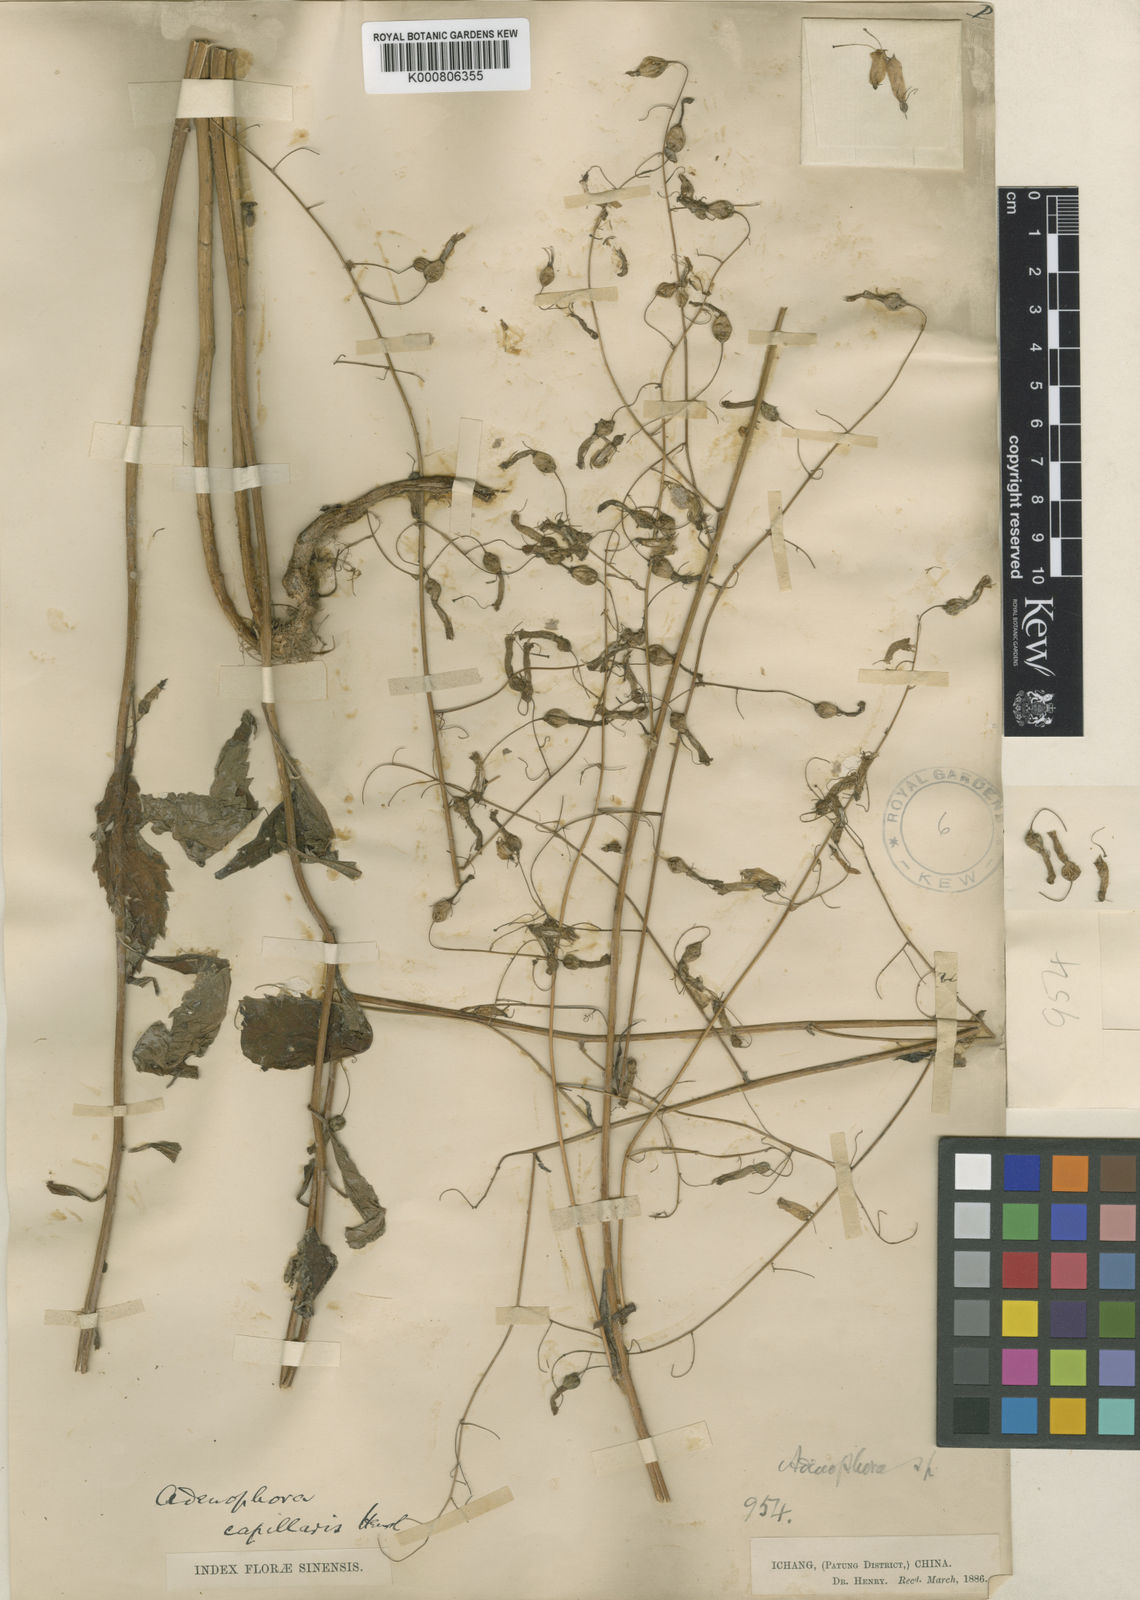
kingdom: Plantae
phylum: Tracheophyta
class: Magnoliopsida
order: Asterales
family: Campanulaceae
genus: Adenophora
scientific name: Adenophora capillaris
